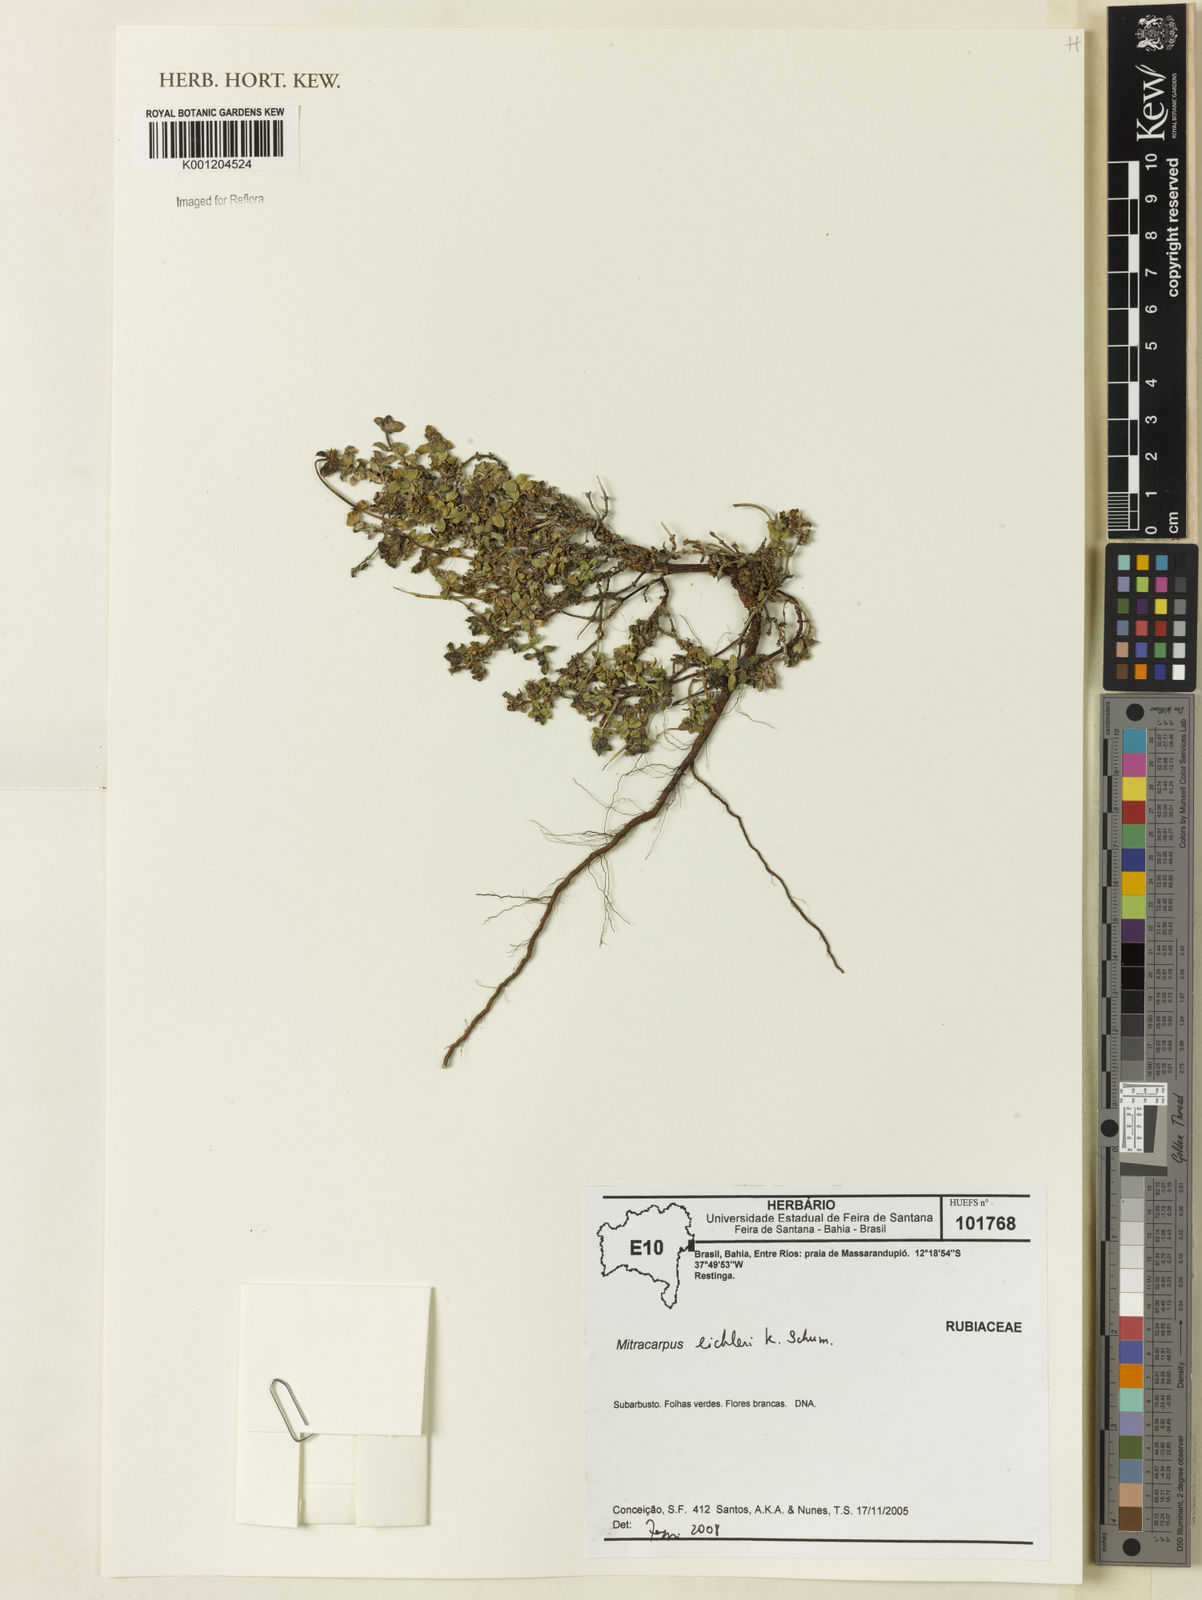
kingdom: Plantae
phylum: Tracheophyta
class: Magnoliopsida
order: Gentianales
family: Rubiaceae
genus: Mitracarpus
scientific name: Mitracarpus eichleri
